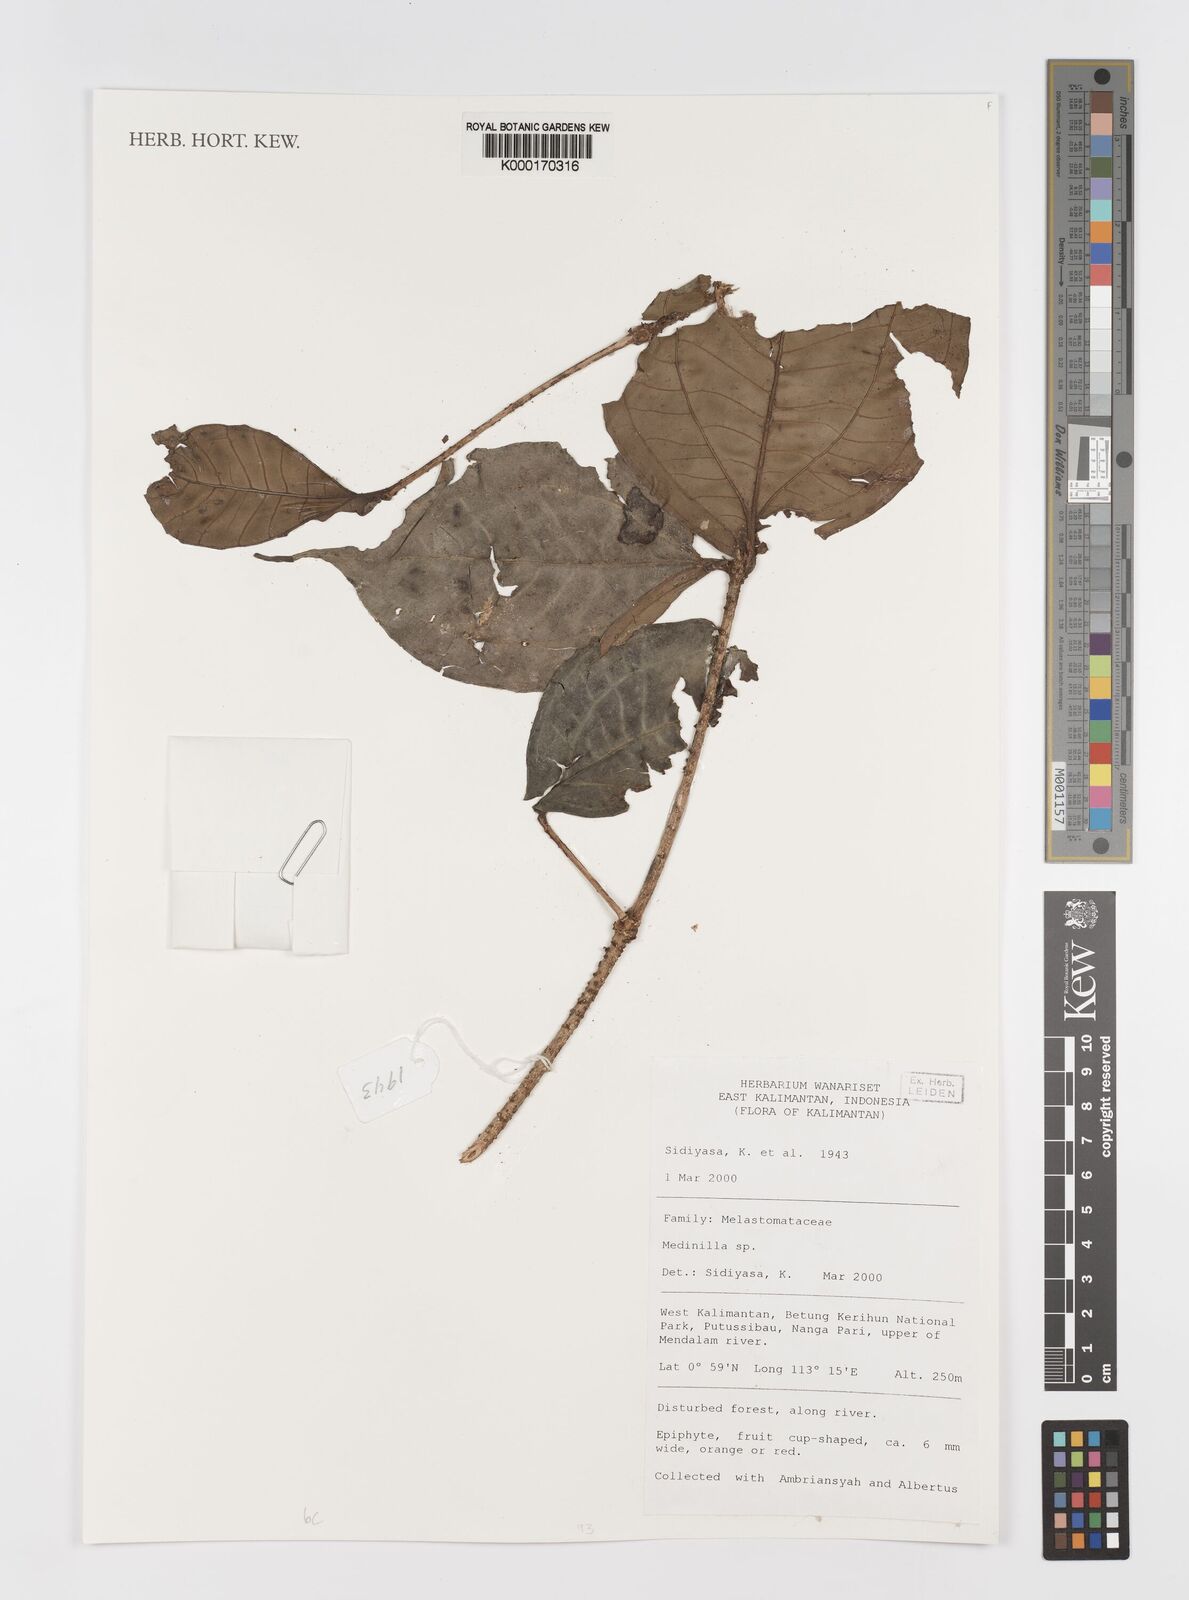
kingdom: Plantae
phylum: Tracheophyta
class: Magnoliopsida
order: Myrtales
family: Melastomataceae
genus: Medinilla
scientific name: Medinilla
